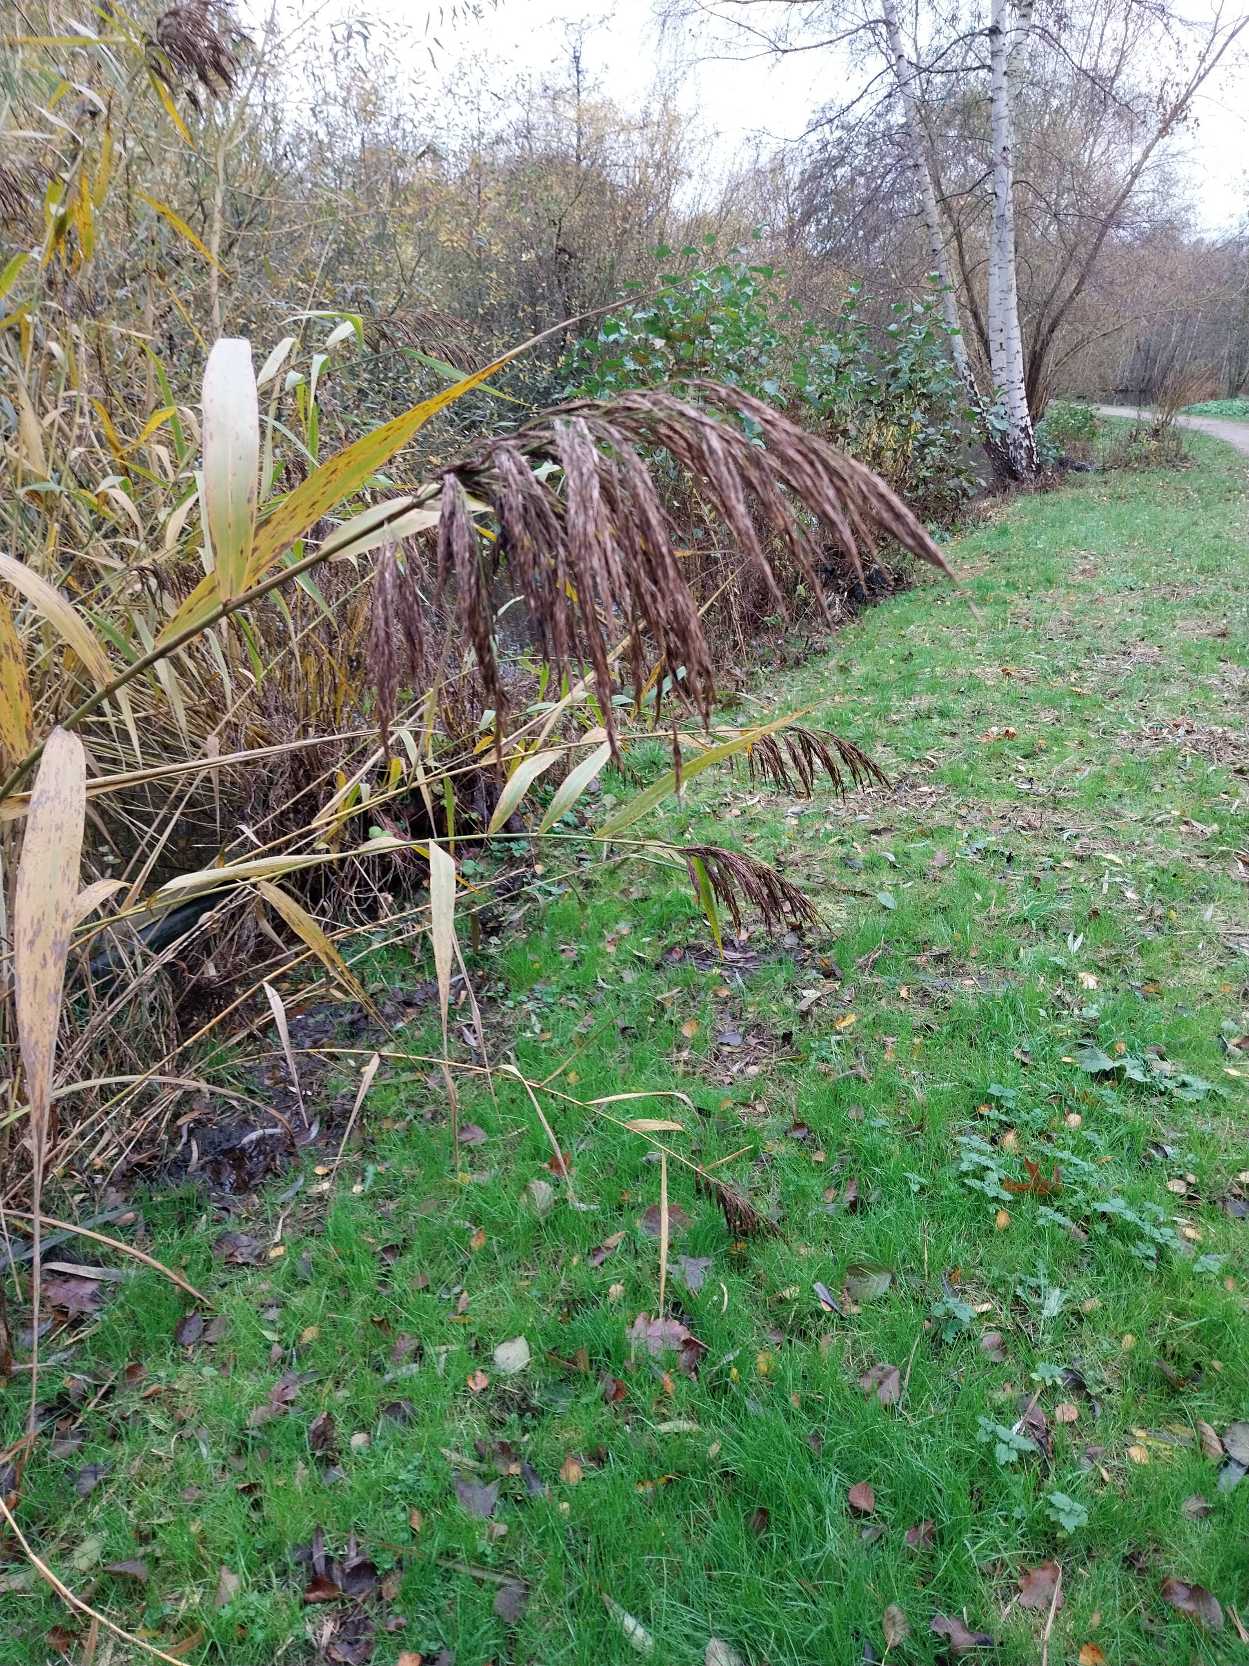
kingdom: Plantae
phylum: Tracheophyta
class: Liliopsida
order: Poales
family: Poaceae
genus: Phragmites
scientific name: Phragmites australis
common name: Tagrør
